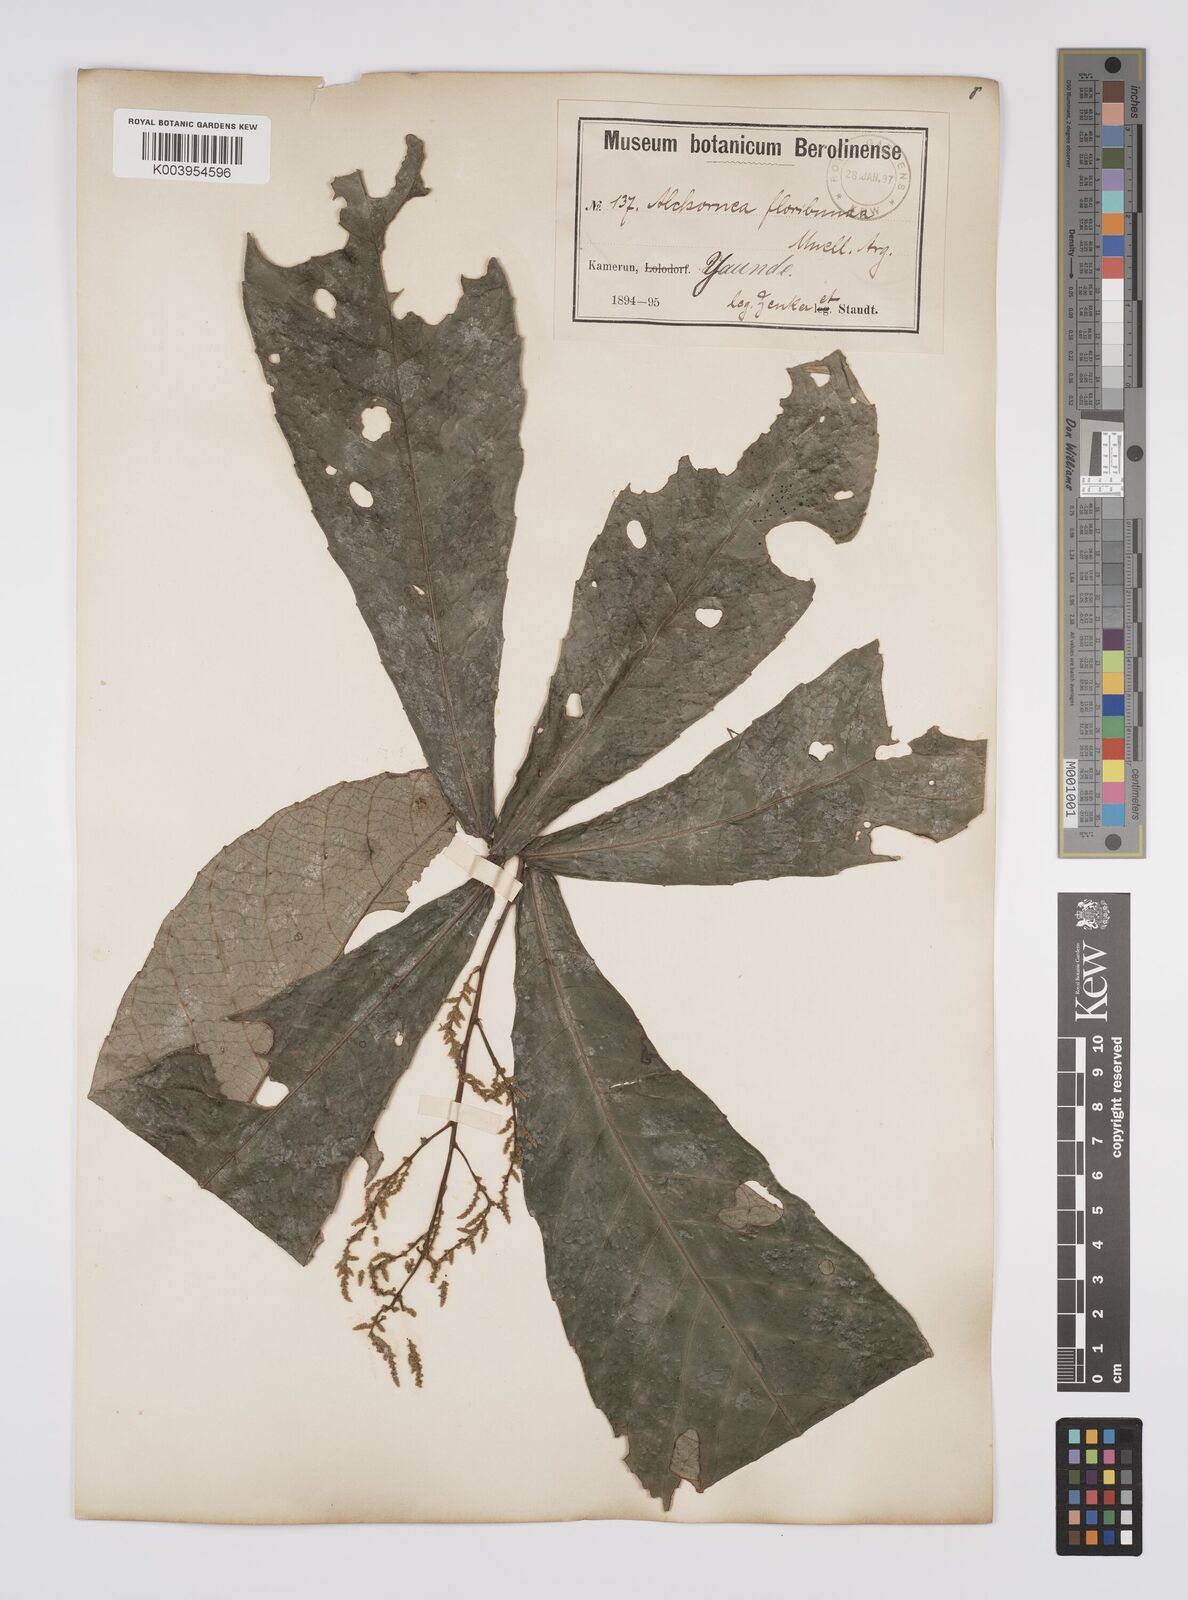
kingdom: Plantae
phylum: Tracheophyta
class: Magnoliopsida
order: Malpighiales
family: Euphorbiaceae
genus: Alchornea
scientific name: Alchornea floribunda
